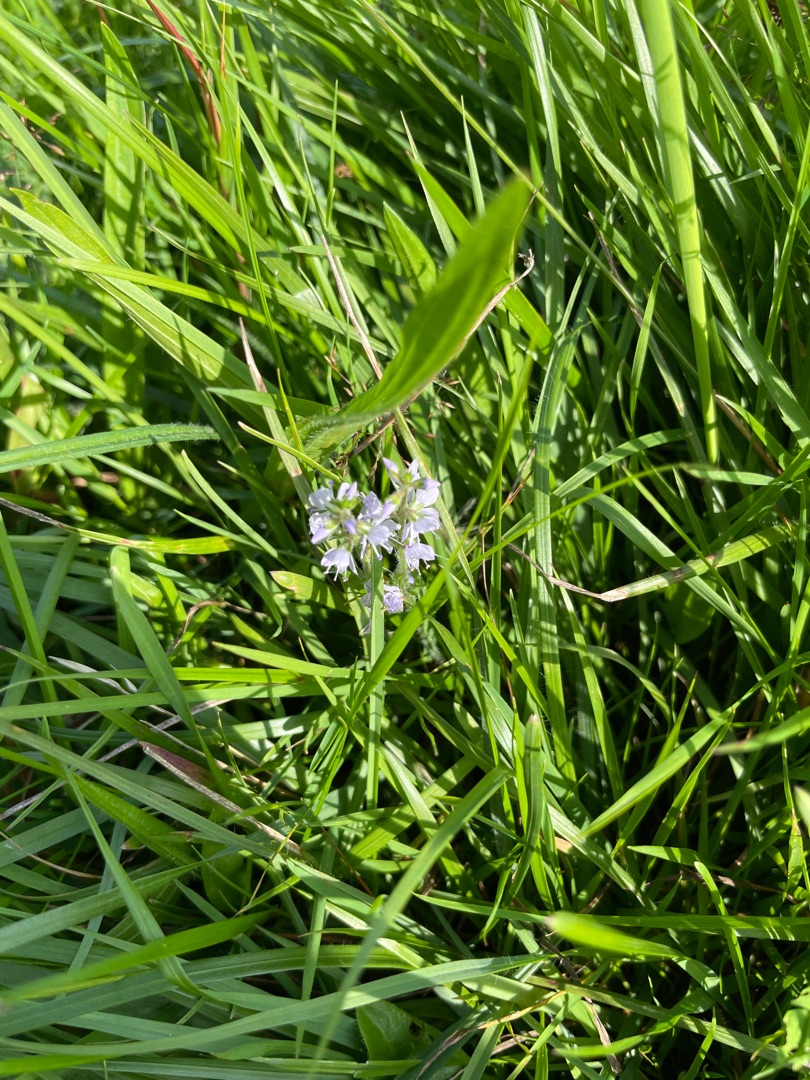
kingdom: Plantae
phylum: Tracheophyta
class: Magnoliopsida
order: Lamiales
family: Plantaginaceae
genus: Veronica
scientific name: Veronica officinalis
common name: Læge-ærenpris
